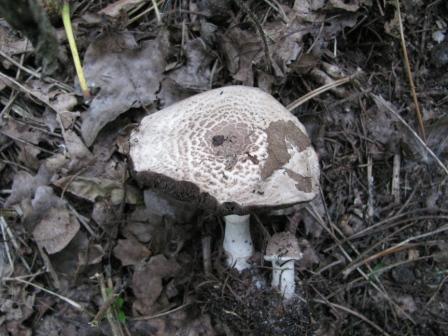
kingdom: Fungi
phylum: Basidiomycota
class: Agaricomycetes
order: Agaricales
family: Agaricaceae
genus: Agaricus
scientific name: Agaricus impudicus
